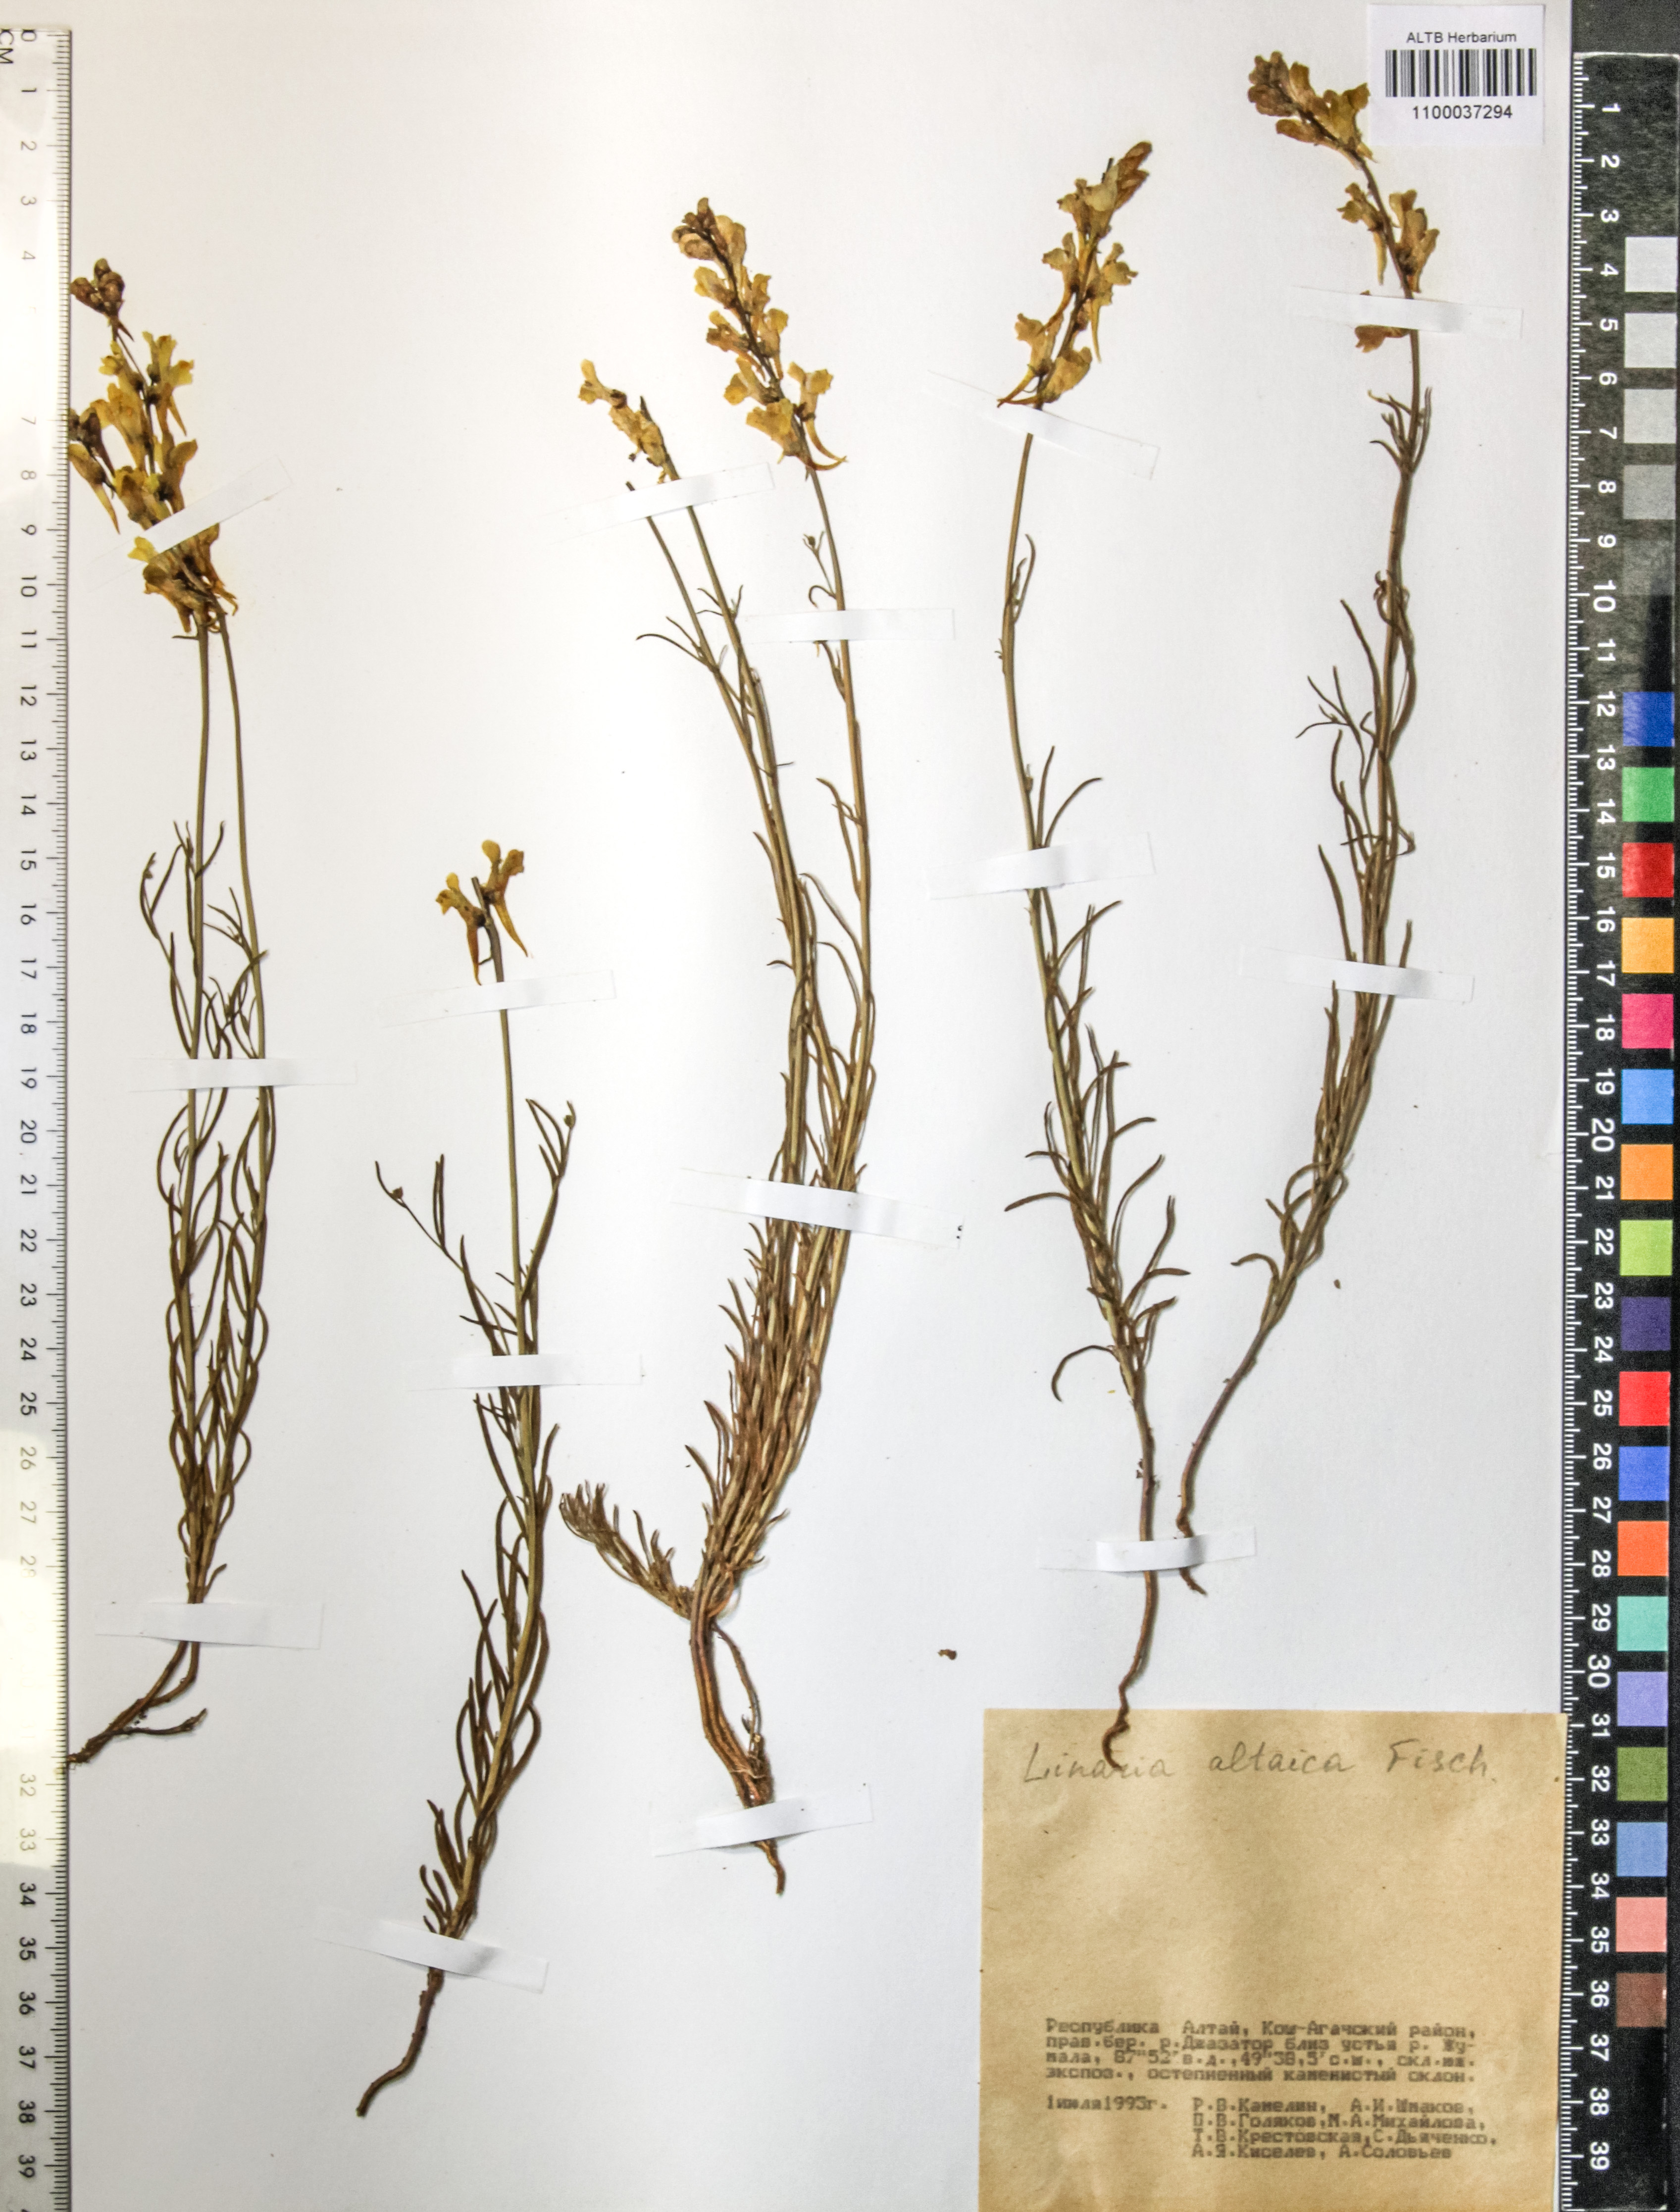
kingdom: Plantae
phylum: Tracheophyta
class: Magnoliopsida
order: Lamiales
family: Plantaginaceae
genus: Linaria
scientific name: Linaria altaica
